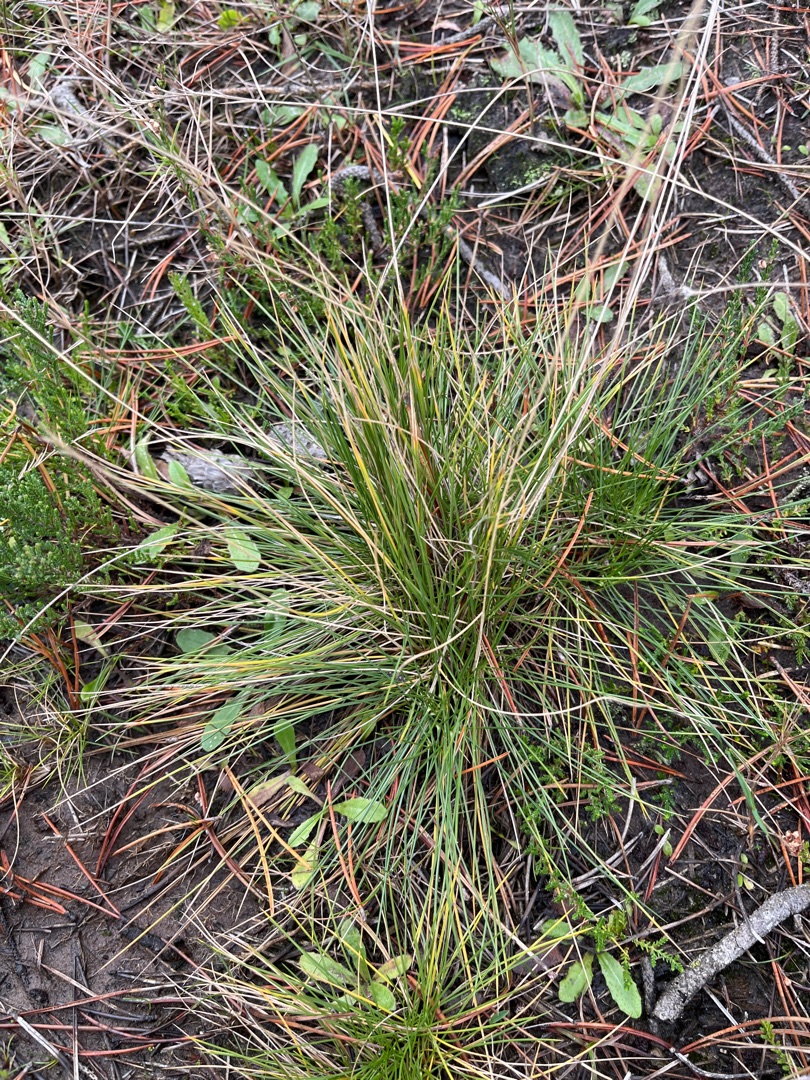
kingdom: Plantae
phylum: Tracheophyta
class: Liliopsida
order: Poales
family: Poaceae
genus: Nardus
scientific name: Nardus stricta
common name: Katteskæg
